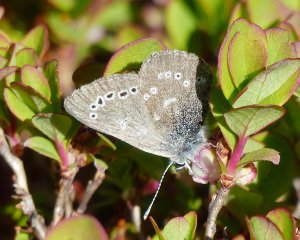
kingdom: Animalia
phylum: Arthropoda
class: Insecta
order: Lepidoptera
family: Lycaenidae
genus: Glaucopsyche
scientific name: Glaucopsyche lygdamus
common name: Silvery Blue
